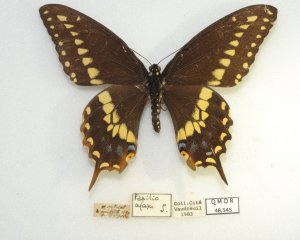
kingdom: Animalia
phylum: Arthropoda
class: Insecta
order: Lepidoptera
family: Papilionidae
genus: Papilio
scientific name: Papilio polyxenes
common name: Black Swallowtail
